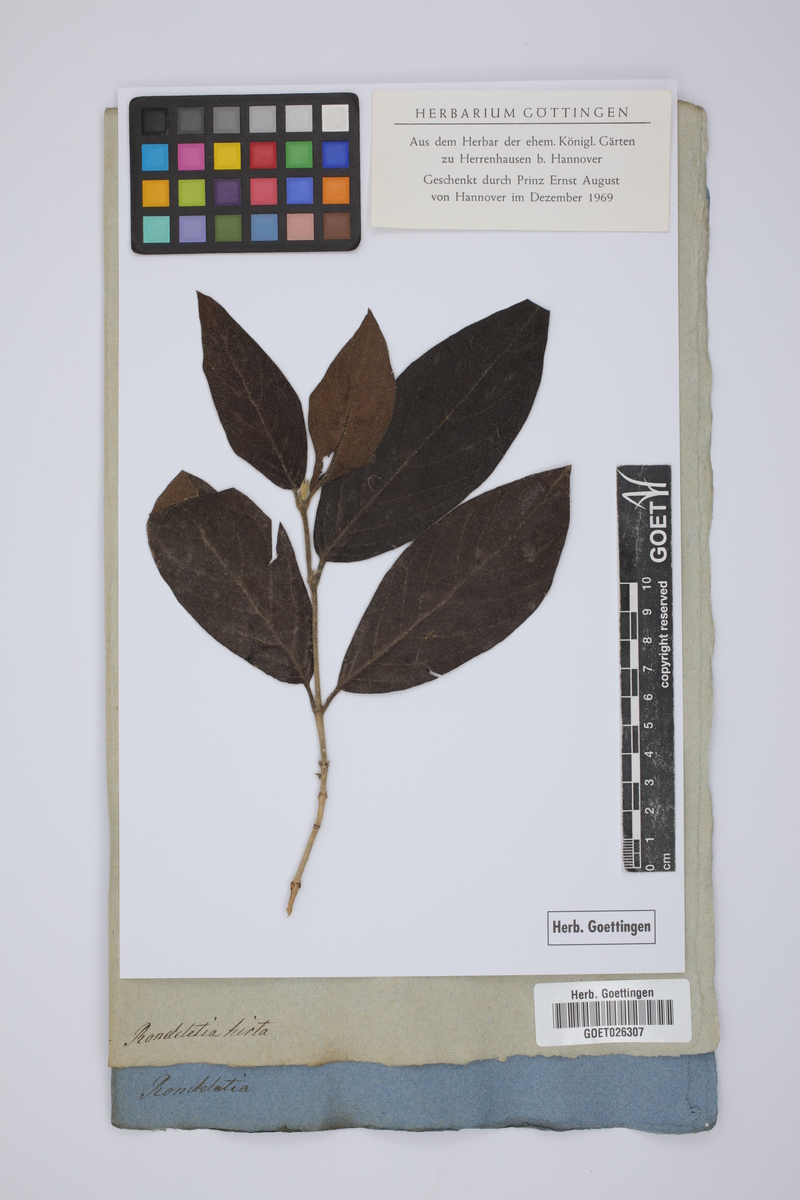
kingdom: Plantae
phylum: Tracheophyta
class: Magnoliopsida
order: Gentianales
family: Rubiaceae
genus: Rondeletia
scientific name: Rondeletia hirta
